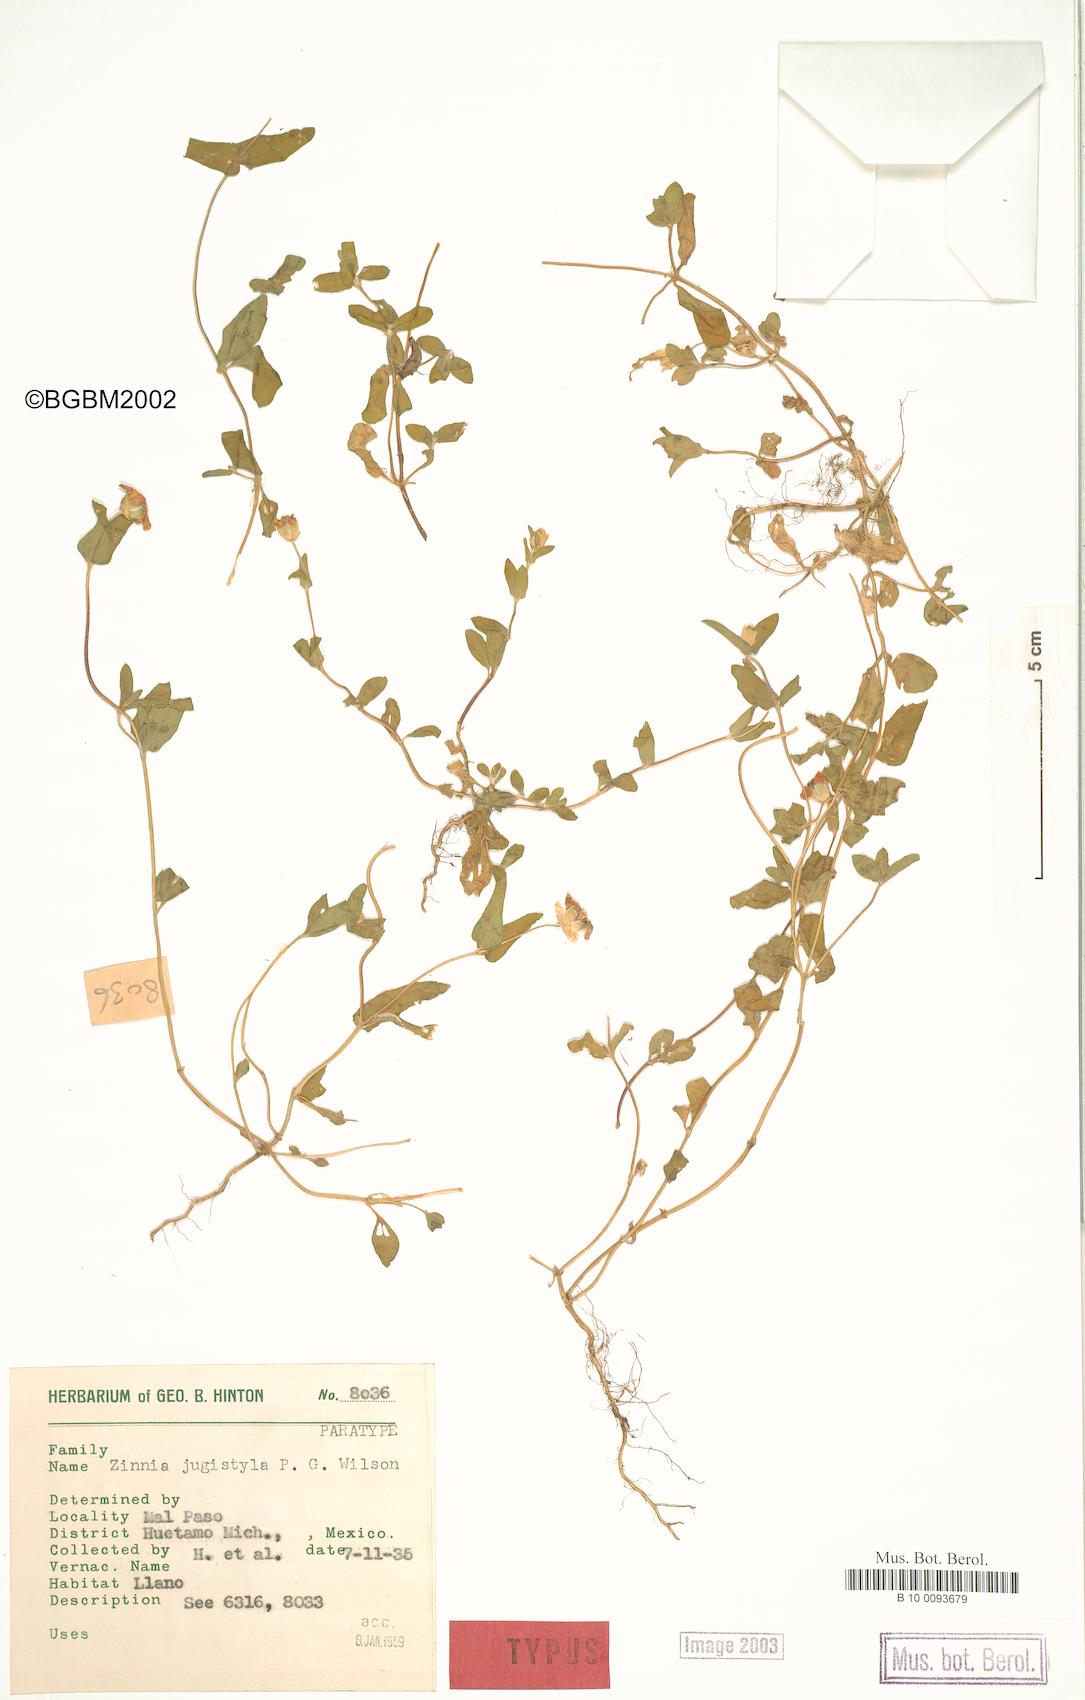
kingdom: Plantae
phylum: Tracheophyta
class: Magnoliopsida
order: Asterales
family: Asteraceae
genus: Zinnia
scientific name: Zinnia flavicoma
